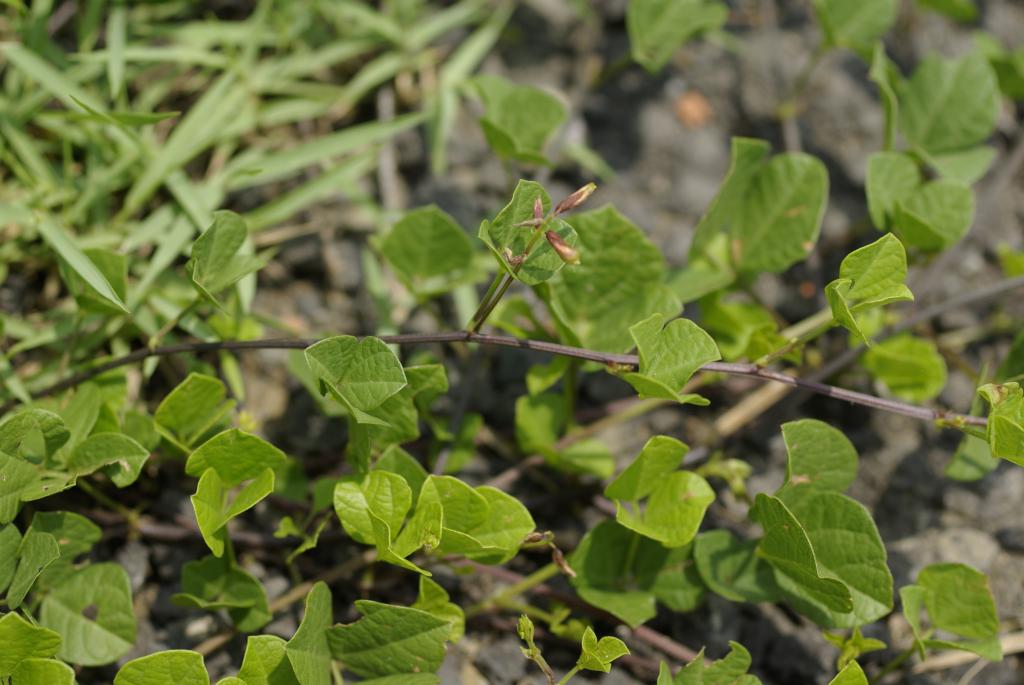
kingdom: Plantae
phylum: Tracheophyta
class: Magnoliopsida
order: Fabales
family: Fabaceae
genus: Rhynchosia
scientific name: Rhynchosia minima
